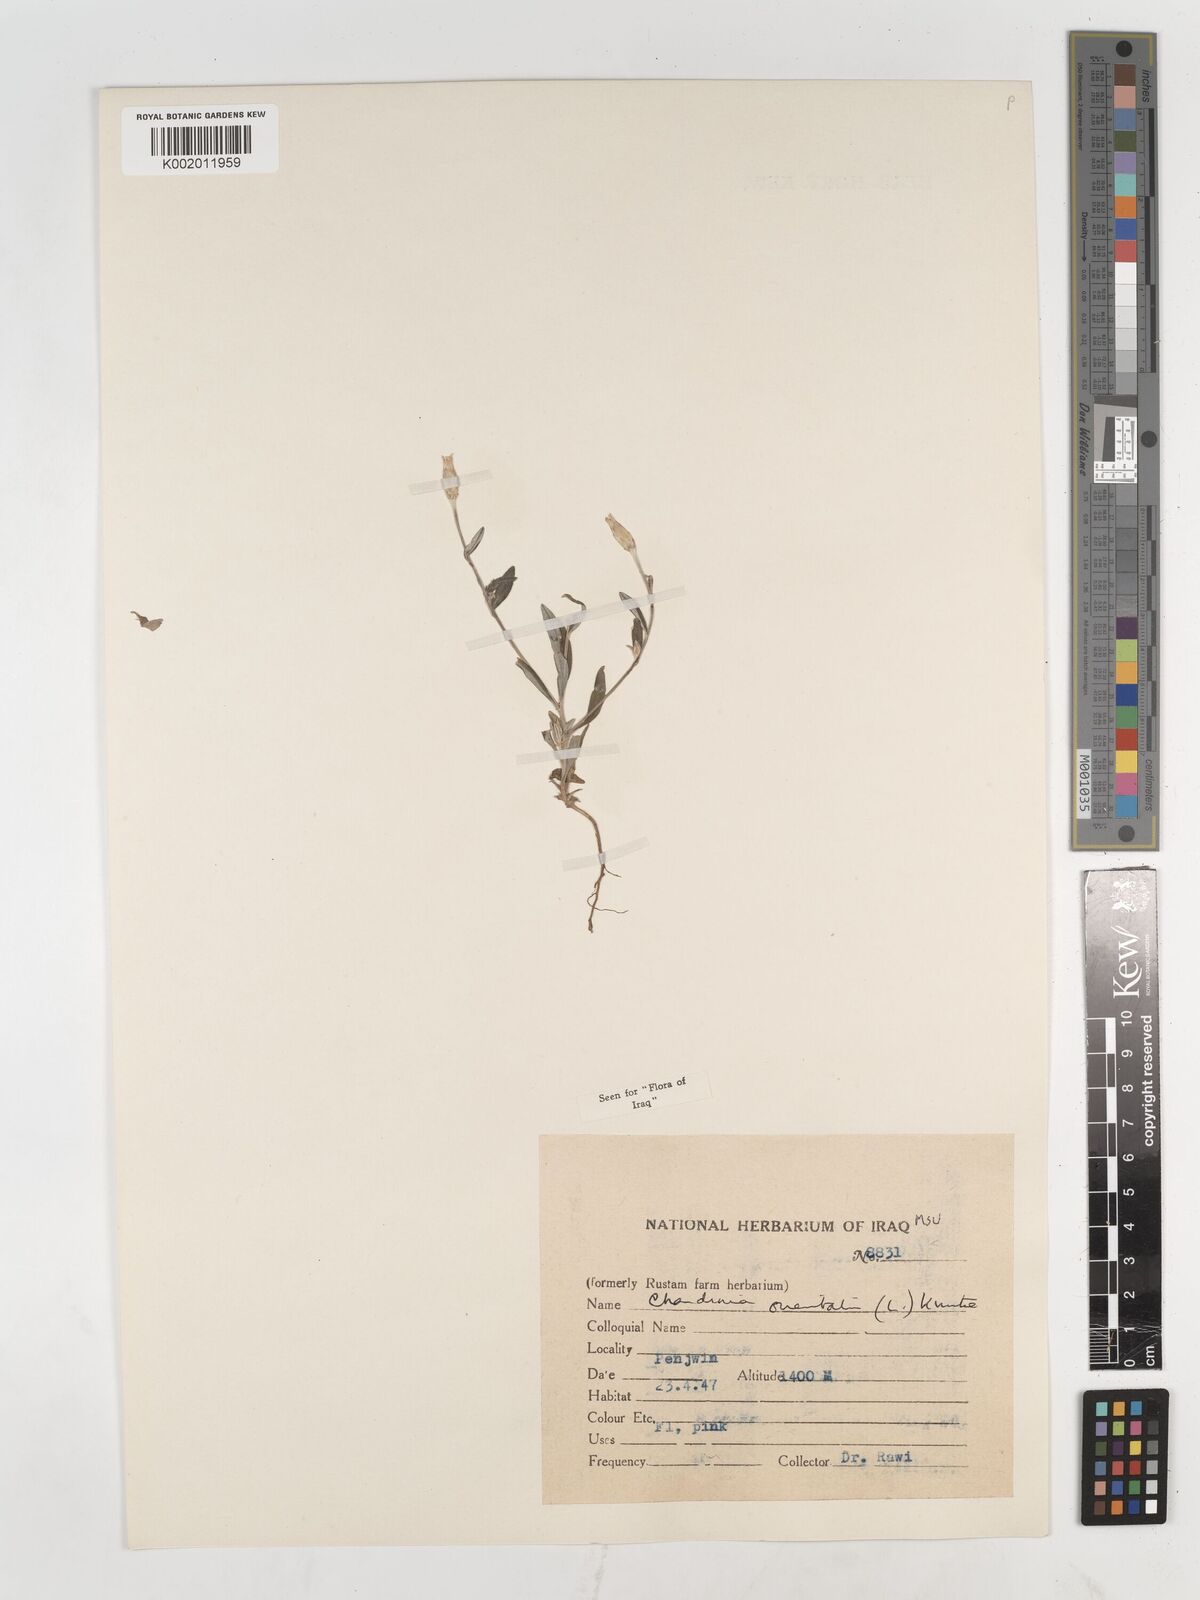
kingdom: Plantae
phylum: Tracheophyta
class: Magnoliopsida
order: Asterales
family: Asteraceae
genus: Chardinia
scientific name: Chardinia orientalis
